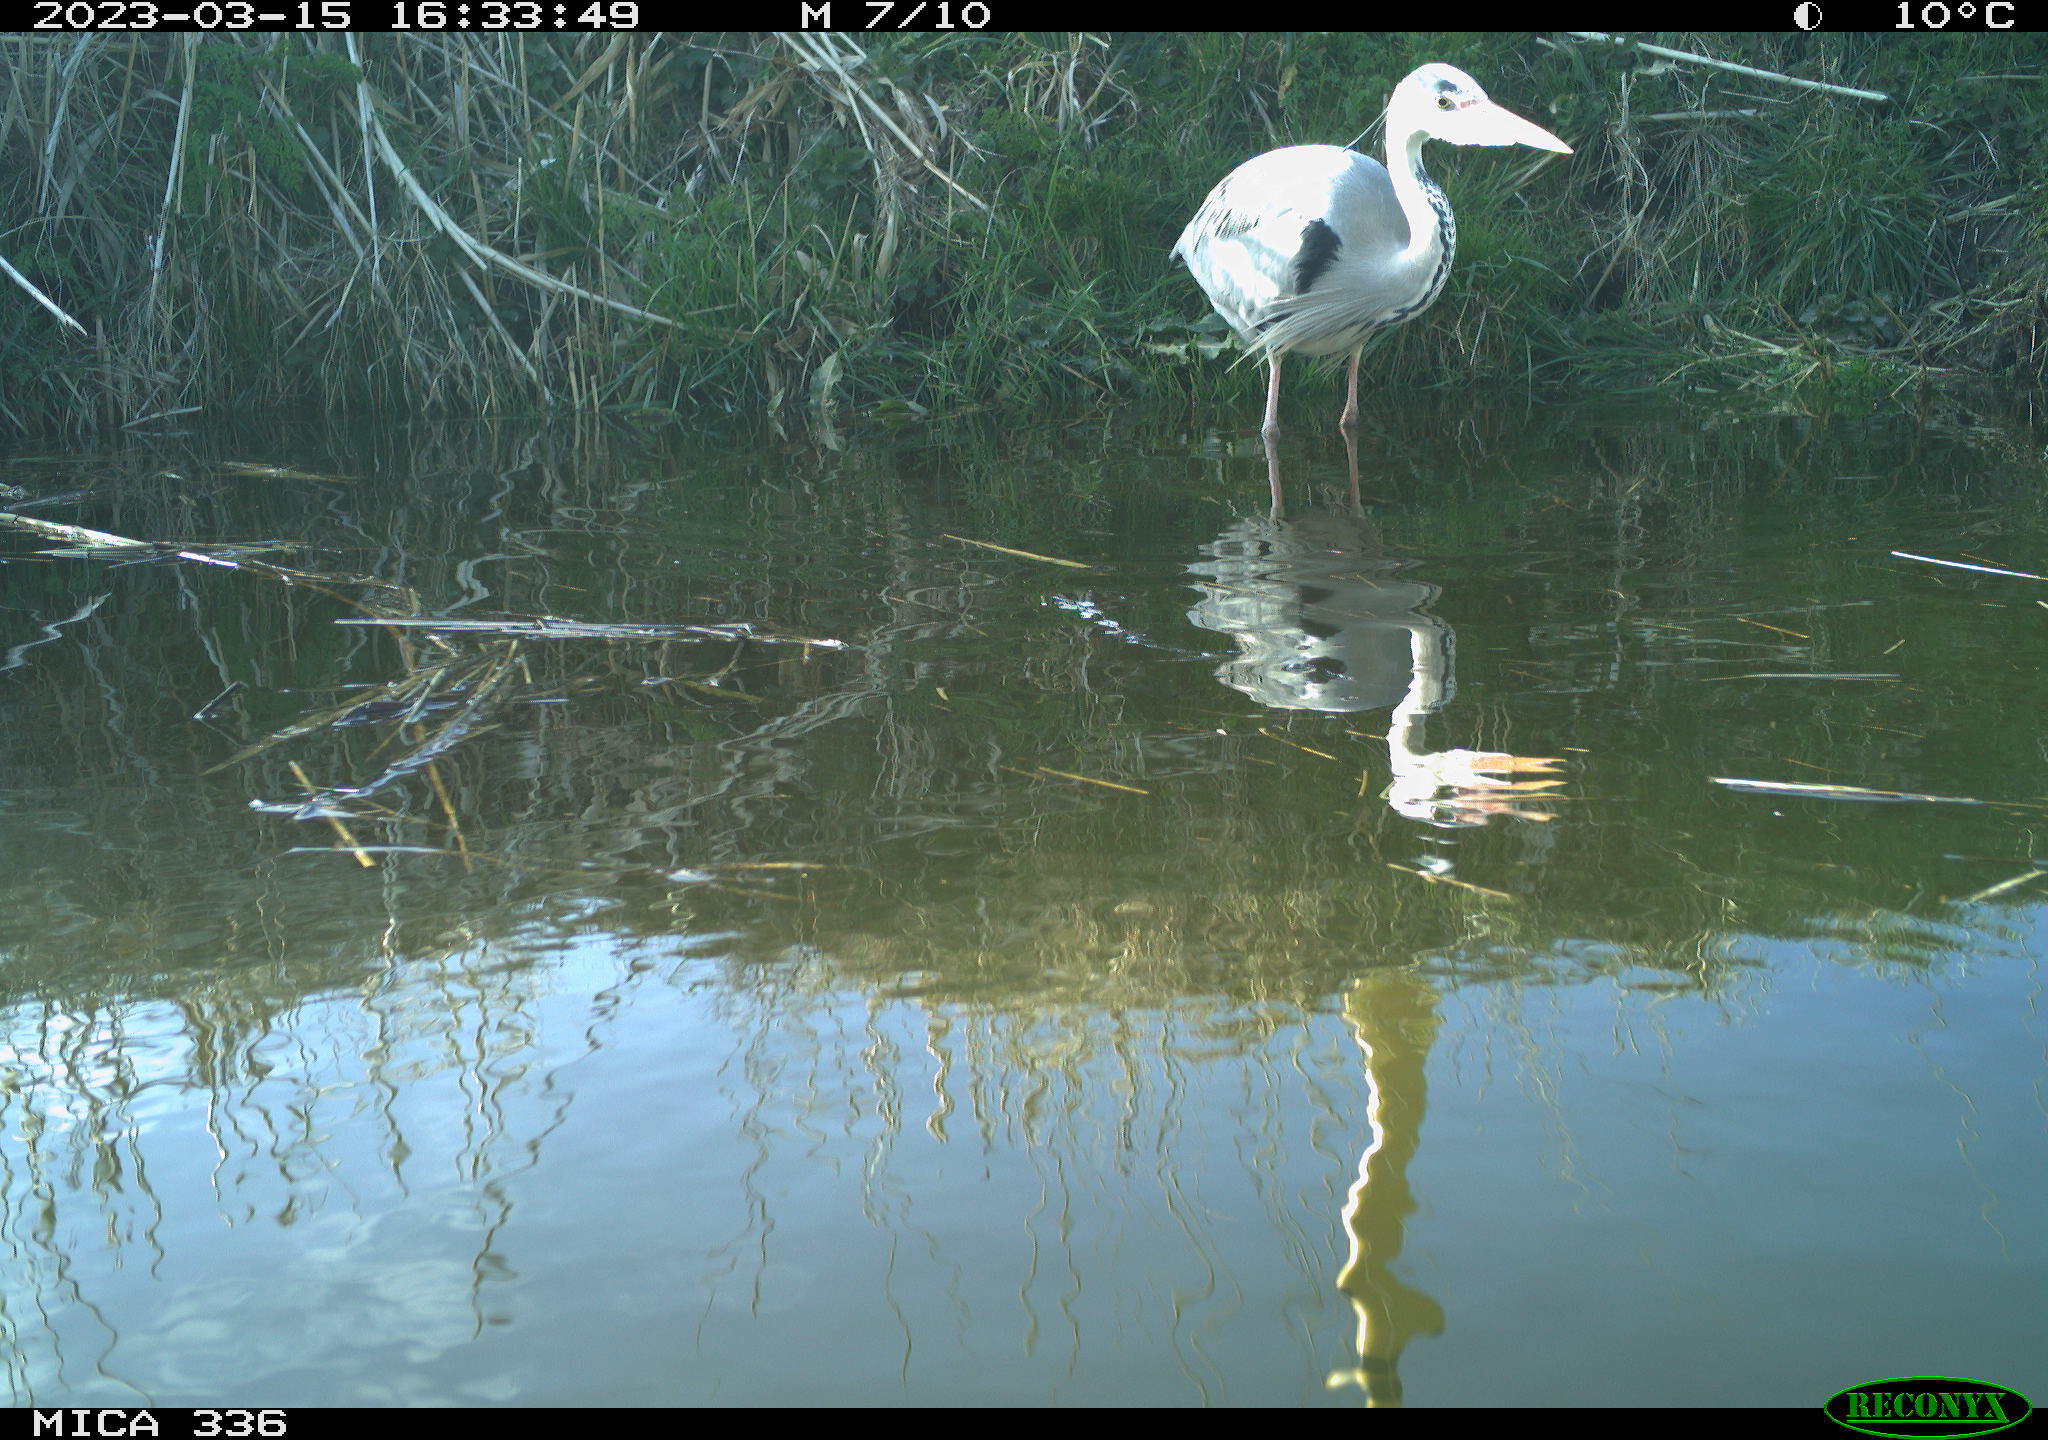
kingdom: Animalia
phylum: Chordata
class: Aves
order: Pelecaniformes
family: Ardeidae
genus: Ardea
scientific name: Ardea cinerea
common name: Grey heron
